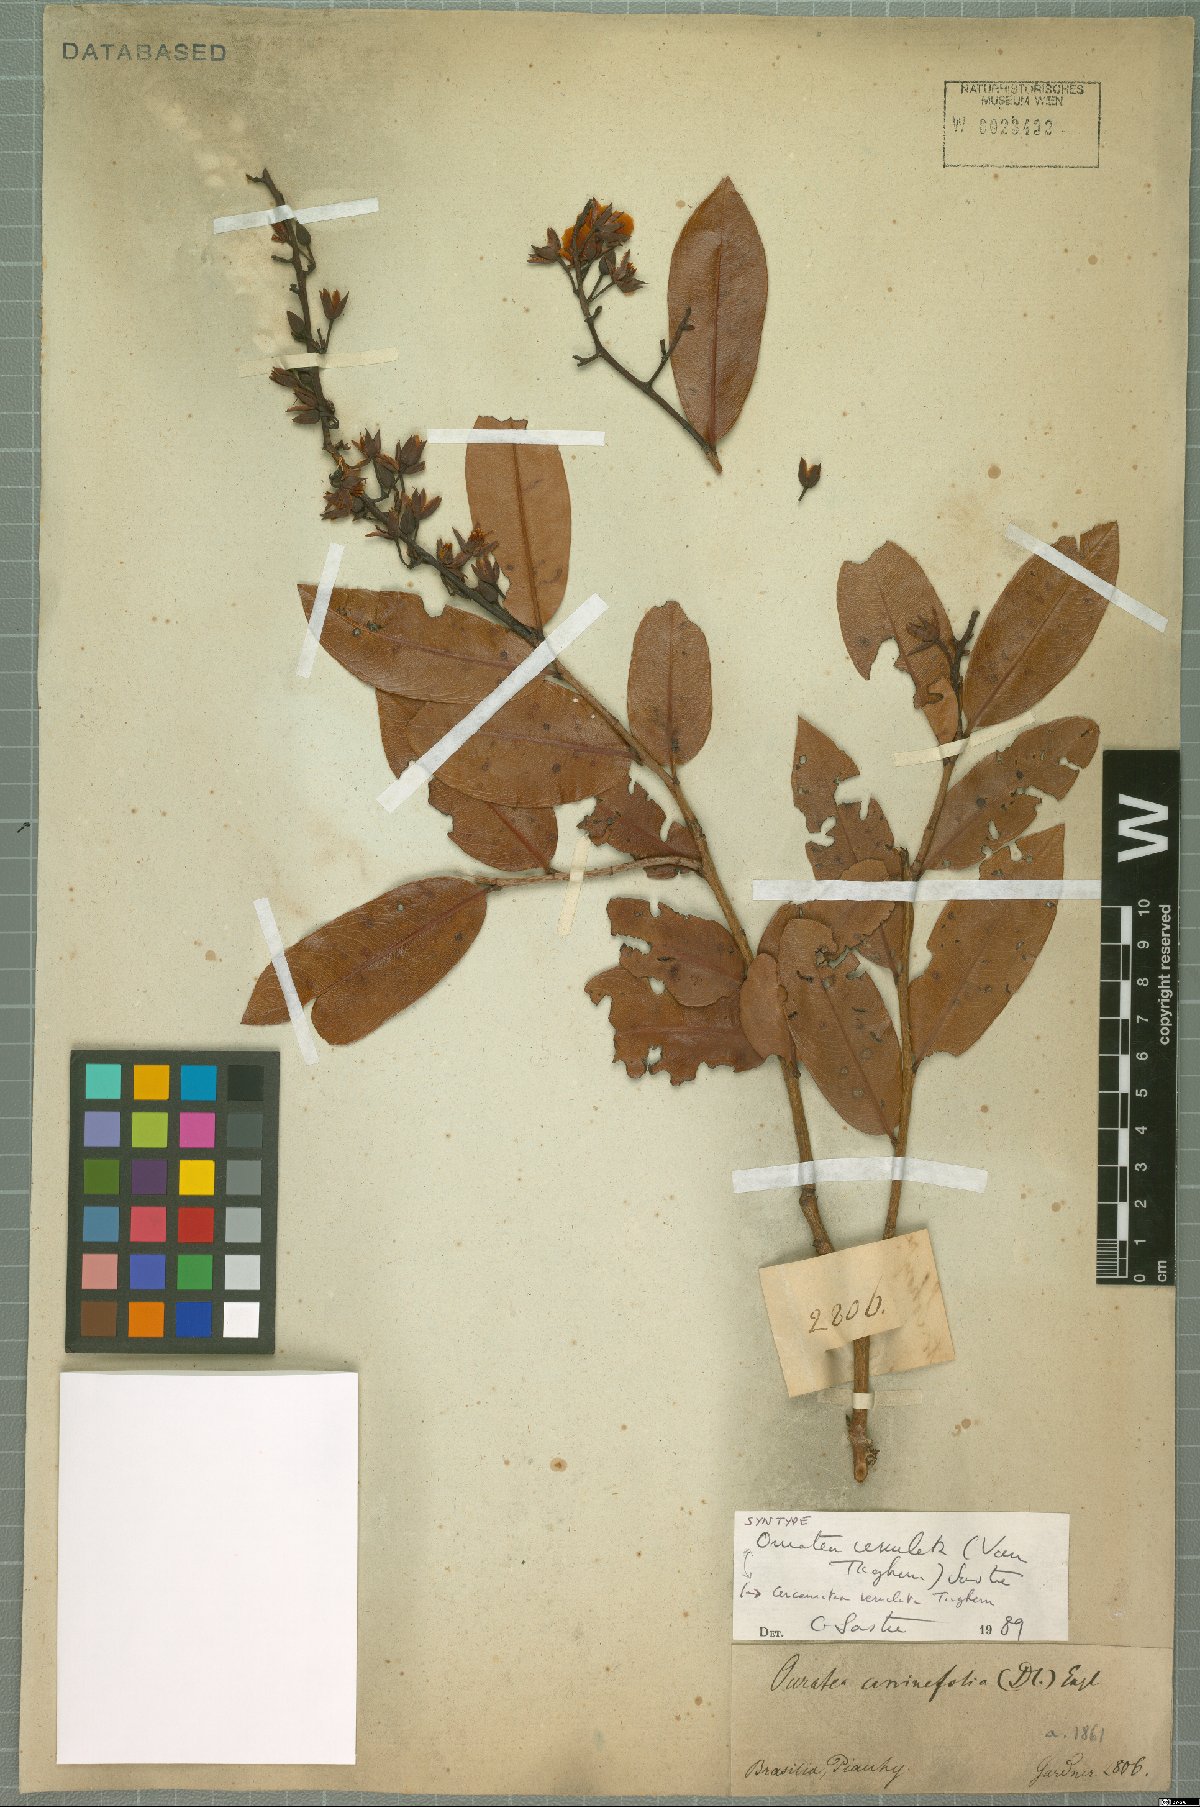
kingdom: Plantae
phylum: Tracheophyta
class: Magnoliopsida
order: Malpighiales
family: Ochnaceae
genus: Ouratea
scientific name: Ouratea venulata
